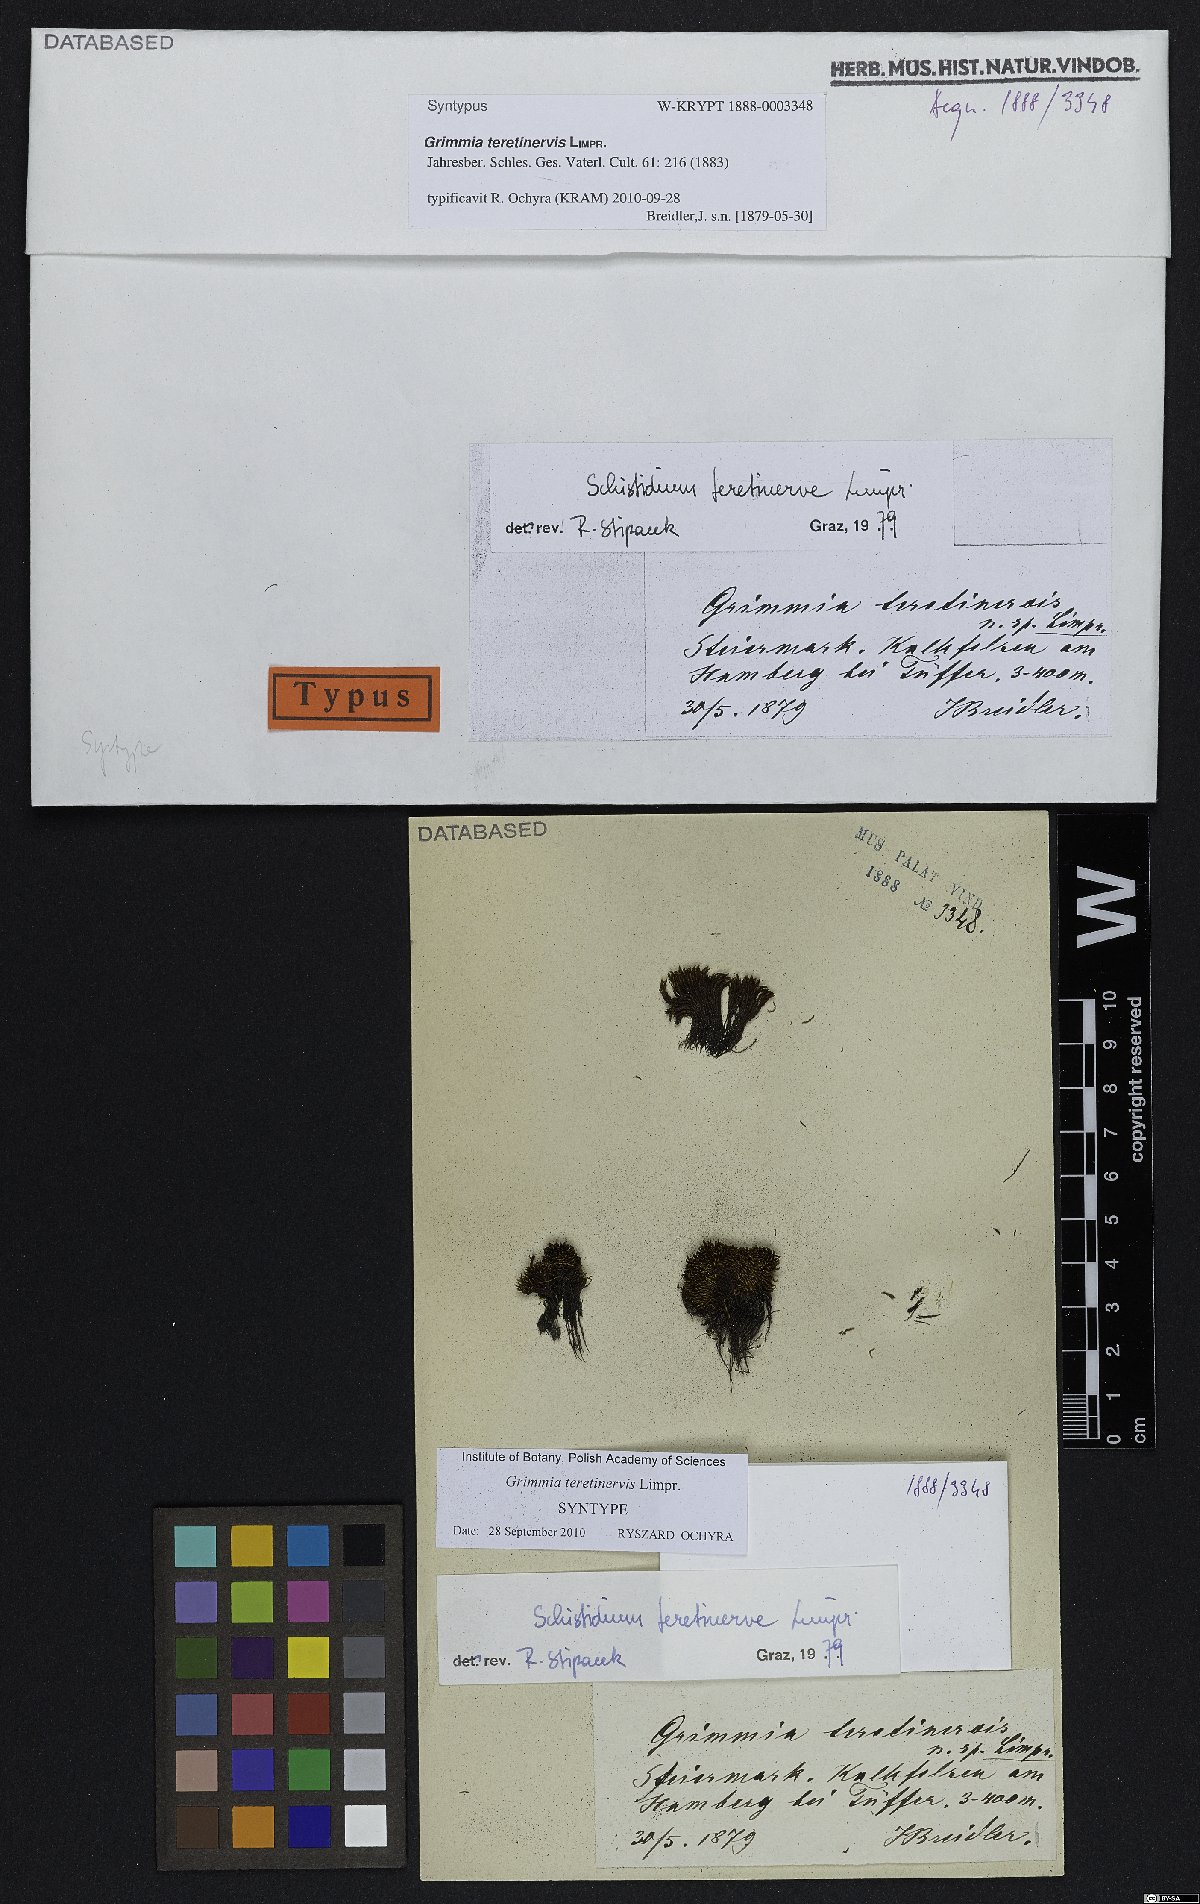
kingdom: Plantae
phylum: Bryophyta
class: Bryopsida
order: Grimmiales
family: Grimmiaceae
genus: Schistidium
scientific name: Schistidium teretinerve
